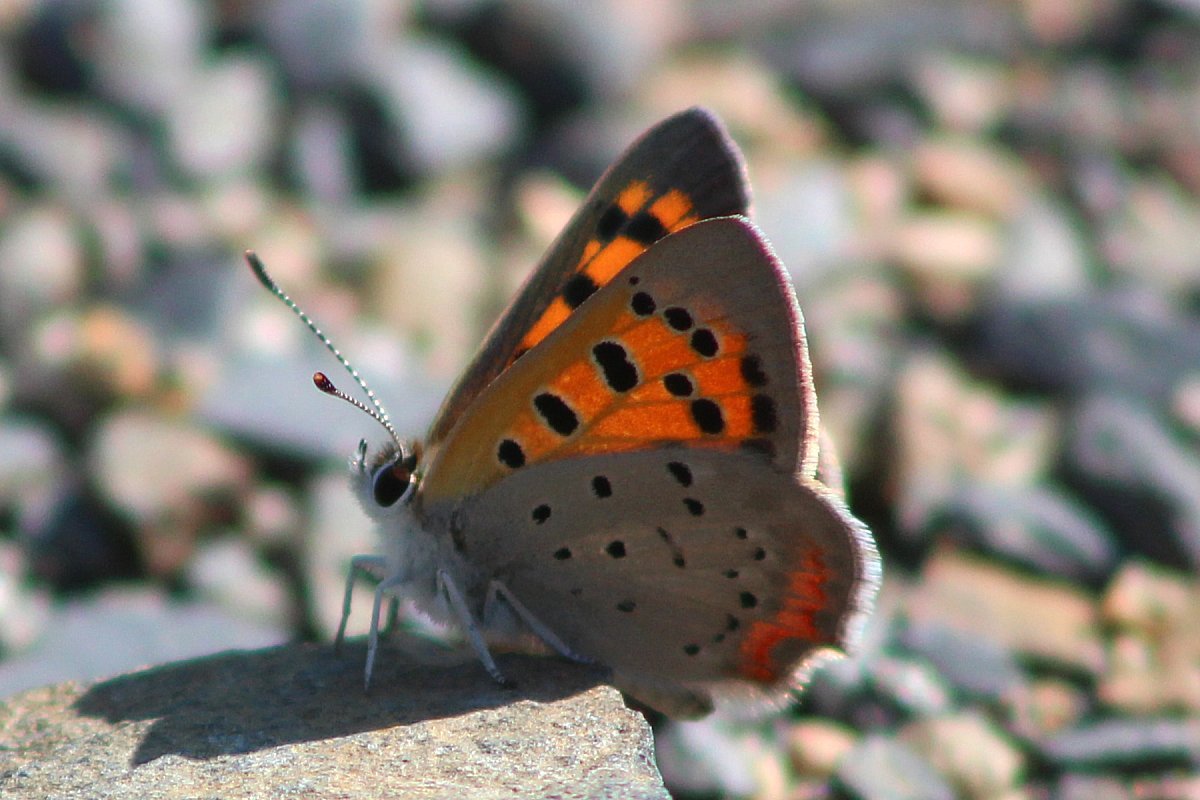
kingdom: Animalia
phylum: Arthropoda
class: Insecta
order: Lepidoptera
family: Lycaenidae
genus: Lycaena
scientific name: Lycaena phlaeas
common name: American Copper
